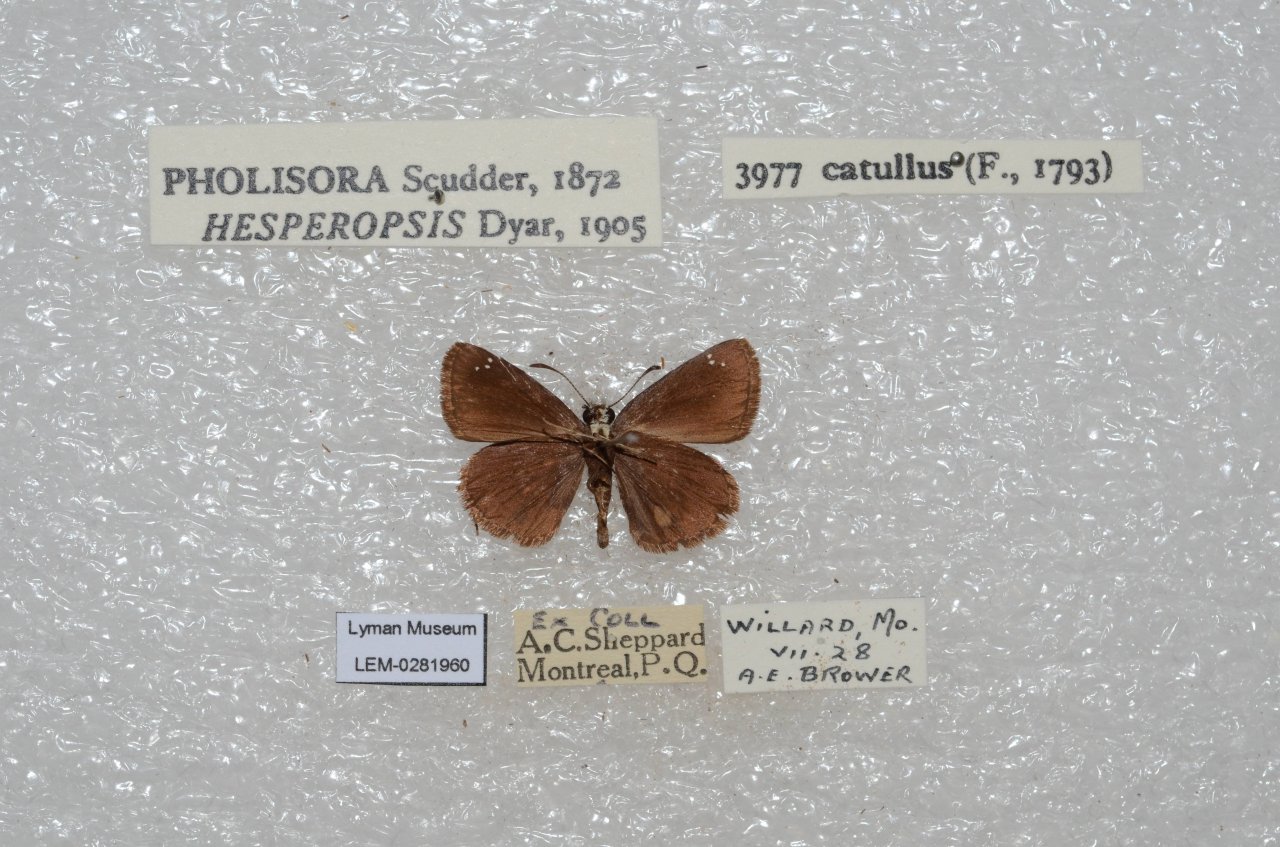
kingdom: Animalia
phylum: Arthropoda
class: Insecta
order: Lepidoptera
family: Hesperiidae
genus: Pholisora
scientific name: Pholisora catullus
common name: Common Sootywing
